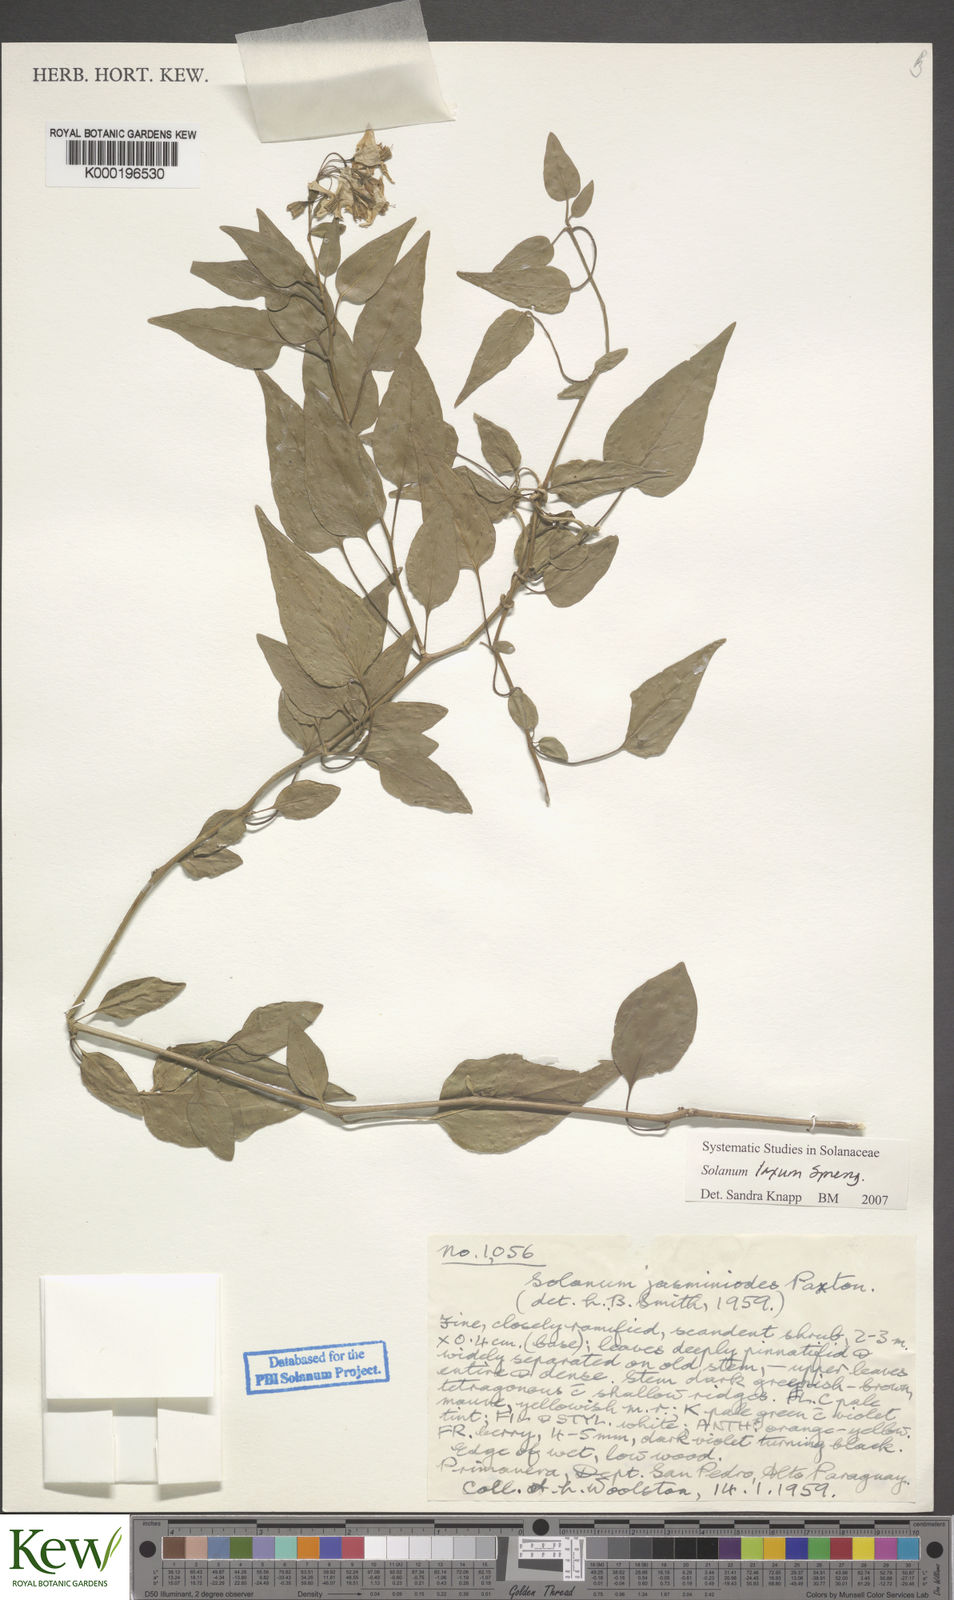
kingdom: Plantae
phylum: Tracheophyta
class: Magnoliopsida
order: Solanales
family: Solanaceae
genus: Solanum
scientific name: Solanum laxum
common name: Nightshade
